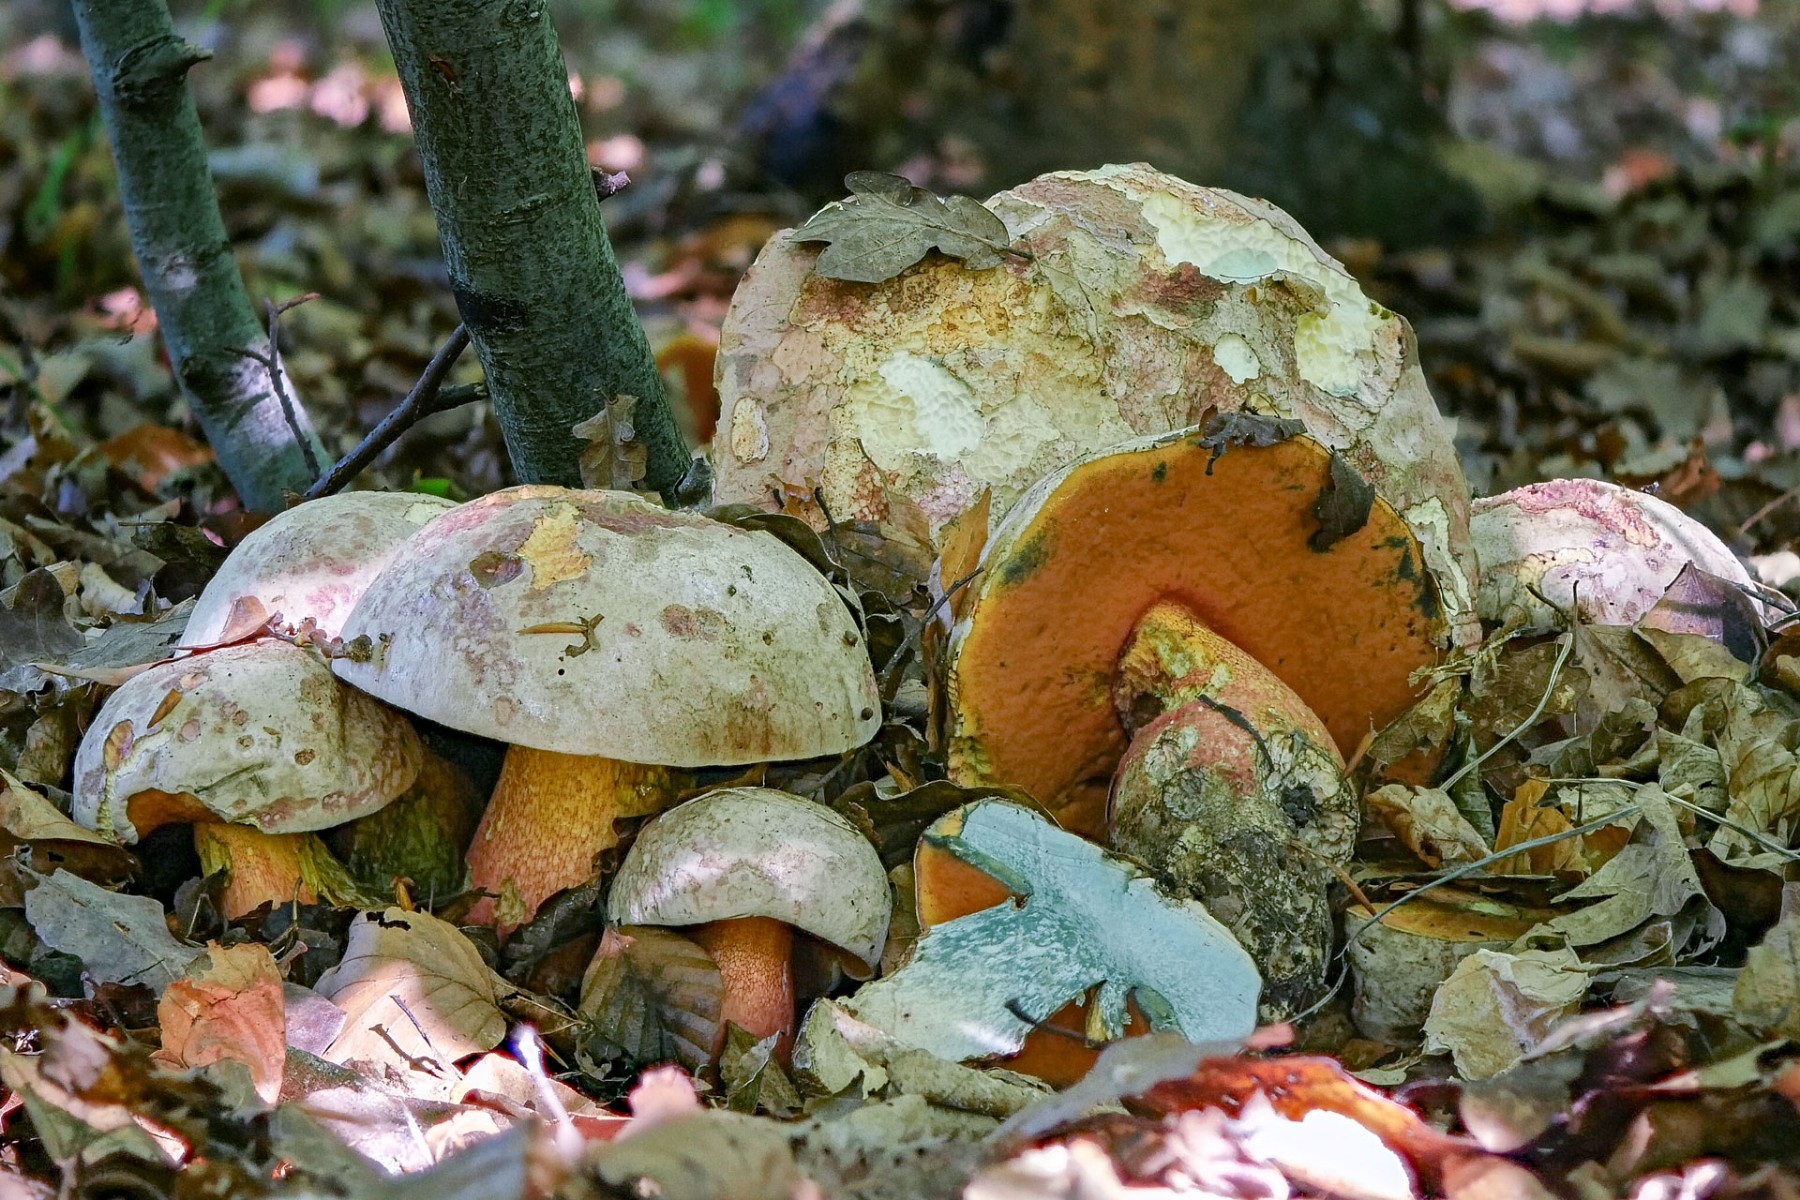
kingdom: Fungi
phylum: Basidiomycota
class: Agaricomycetes
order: Boletales
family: Boletaceae
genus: Rubroboletus
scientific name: Rubroboletus legaliae
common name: djævle-rørhat
